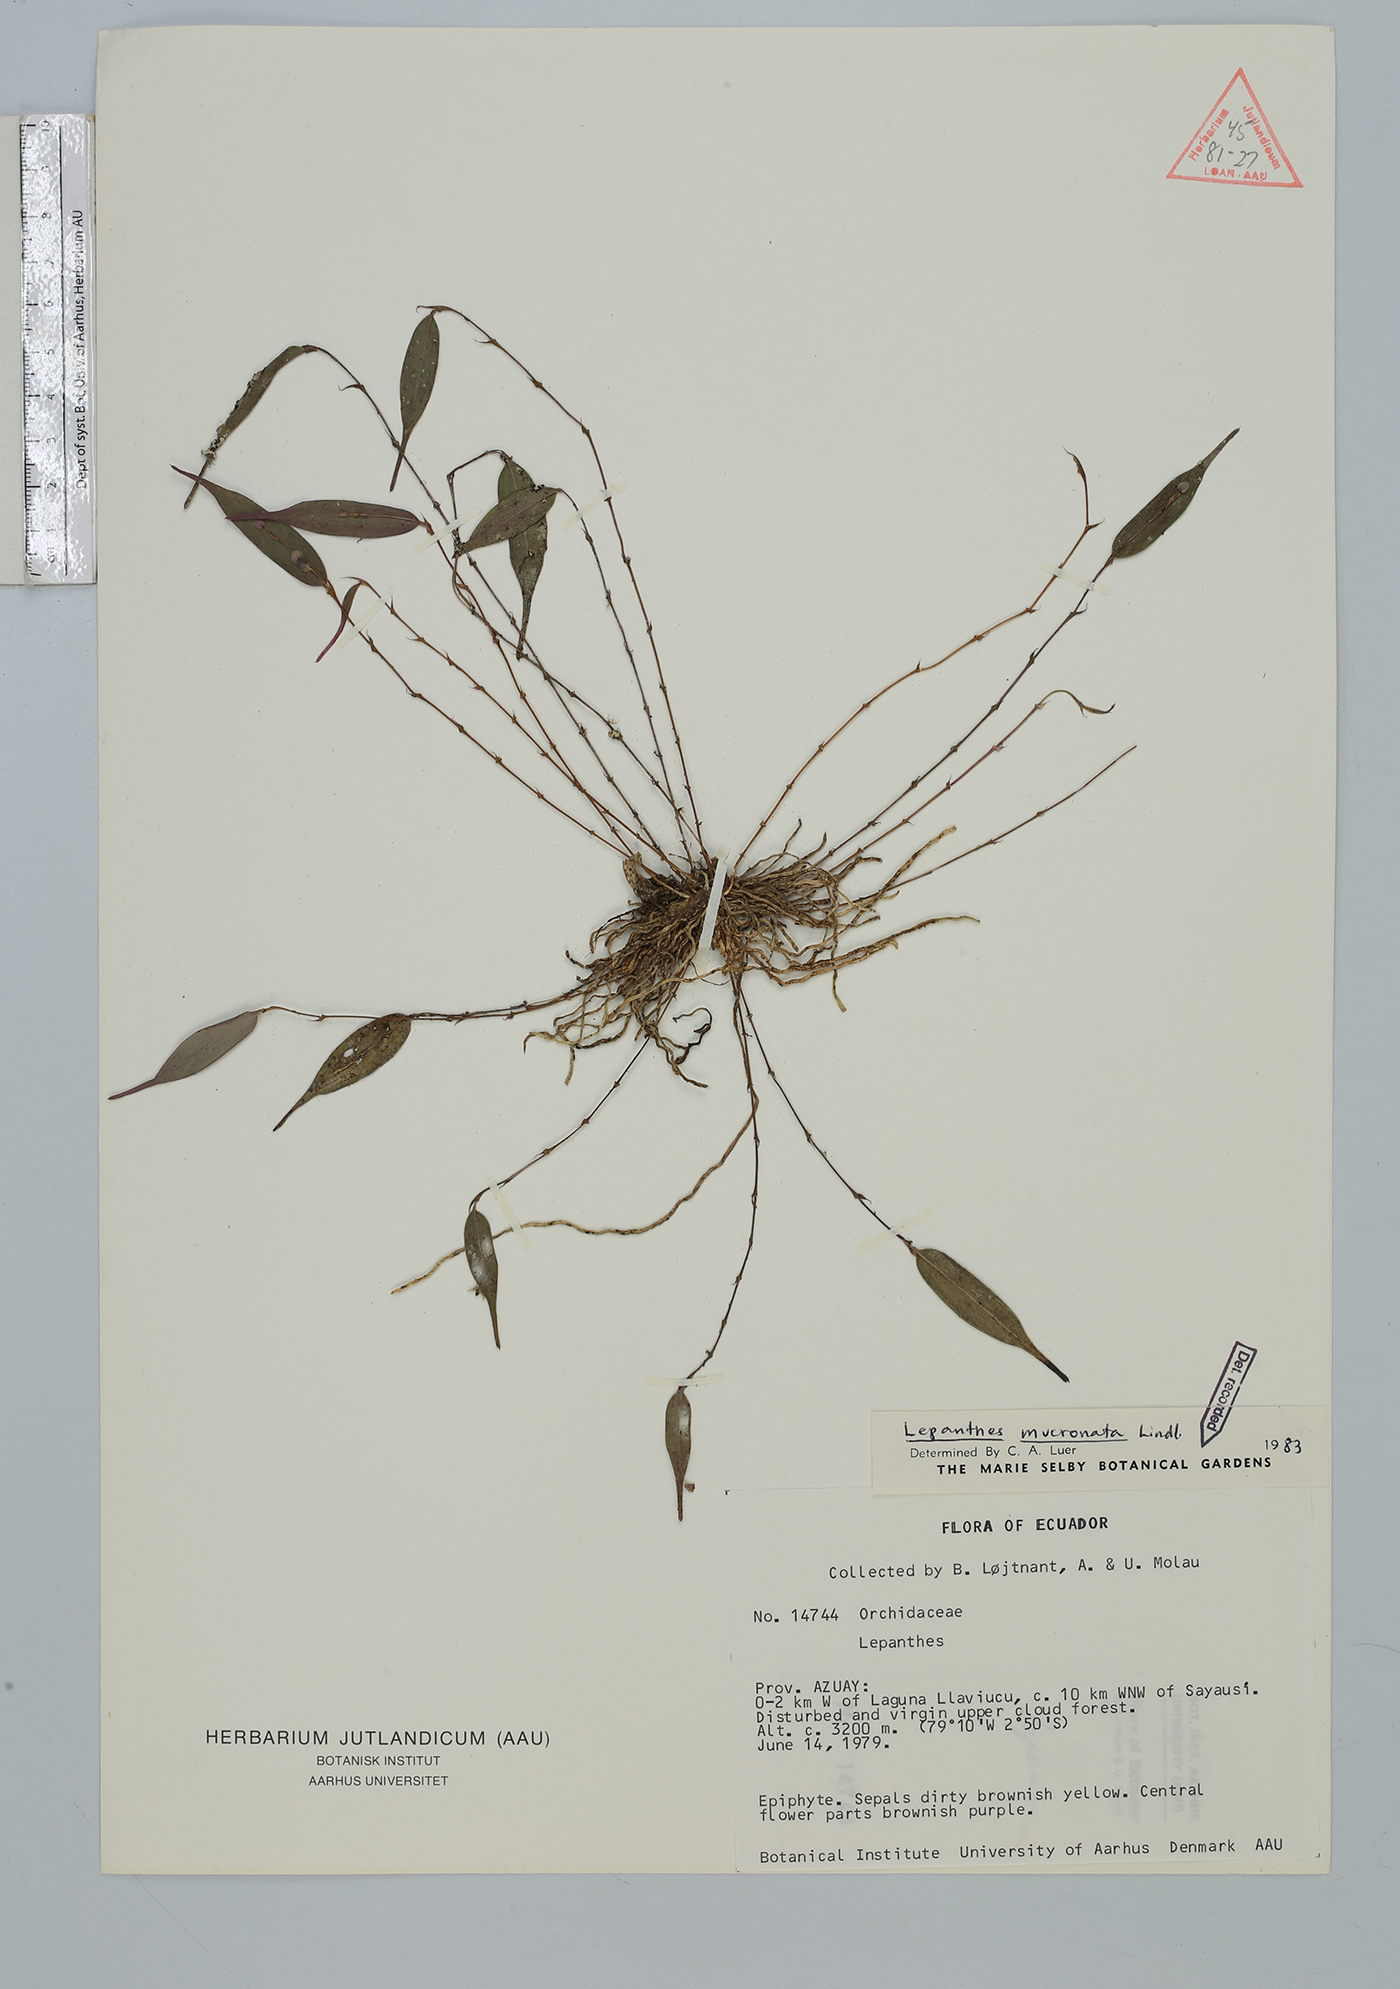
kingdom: Plantae
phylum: Tracheophyta
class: Liliopsida
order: Asparagales
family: Orchidaceae
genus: Lepanthes
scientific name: Lepanthes mucronata
